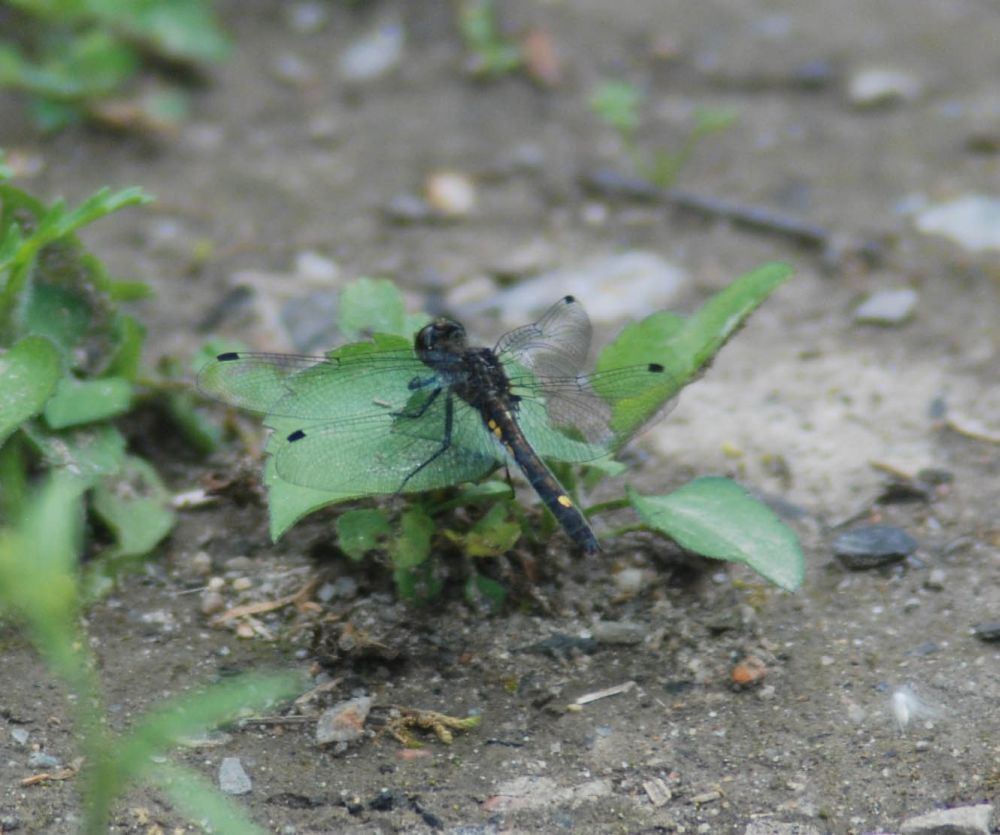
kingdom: Animalia
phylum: Arthropoda
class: Insecta
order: Odonata
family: Libellulidae
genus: Leucorrhinia
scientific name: Leucorrhinia intacta
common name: Dot-tailed whiteface
